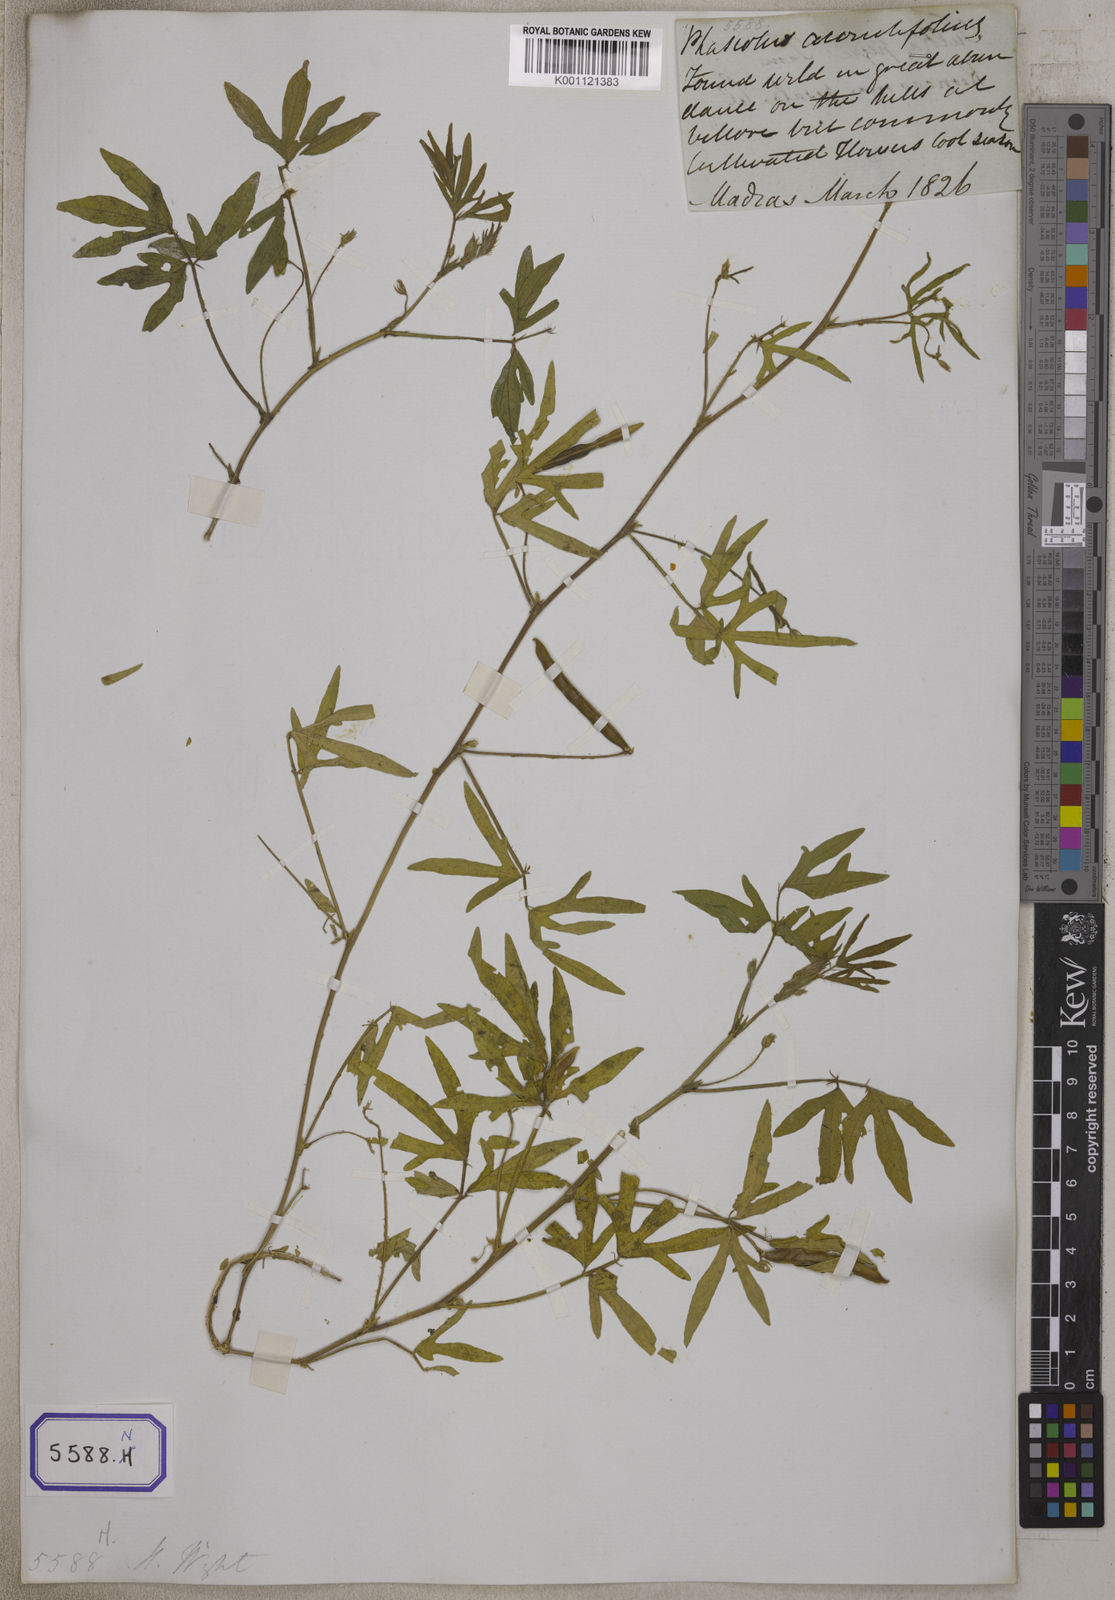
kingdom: Plantae
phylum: Tracheophyta
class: Magnoliopsida
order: Fabales
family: Fabaceae
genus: Phaseolus
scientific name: Phaseolus
